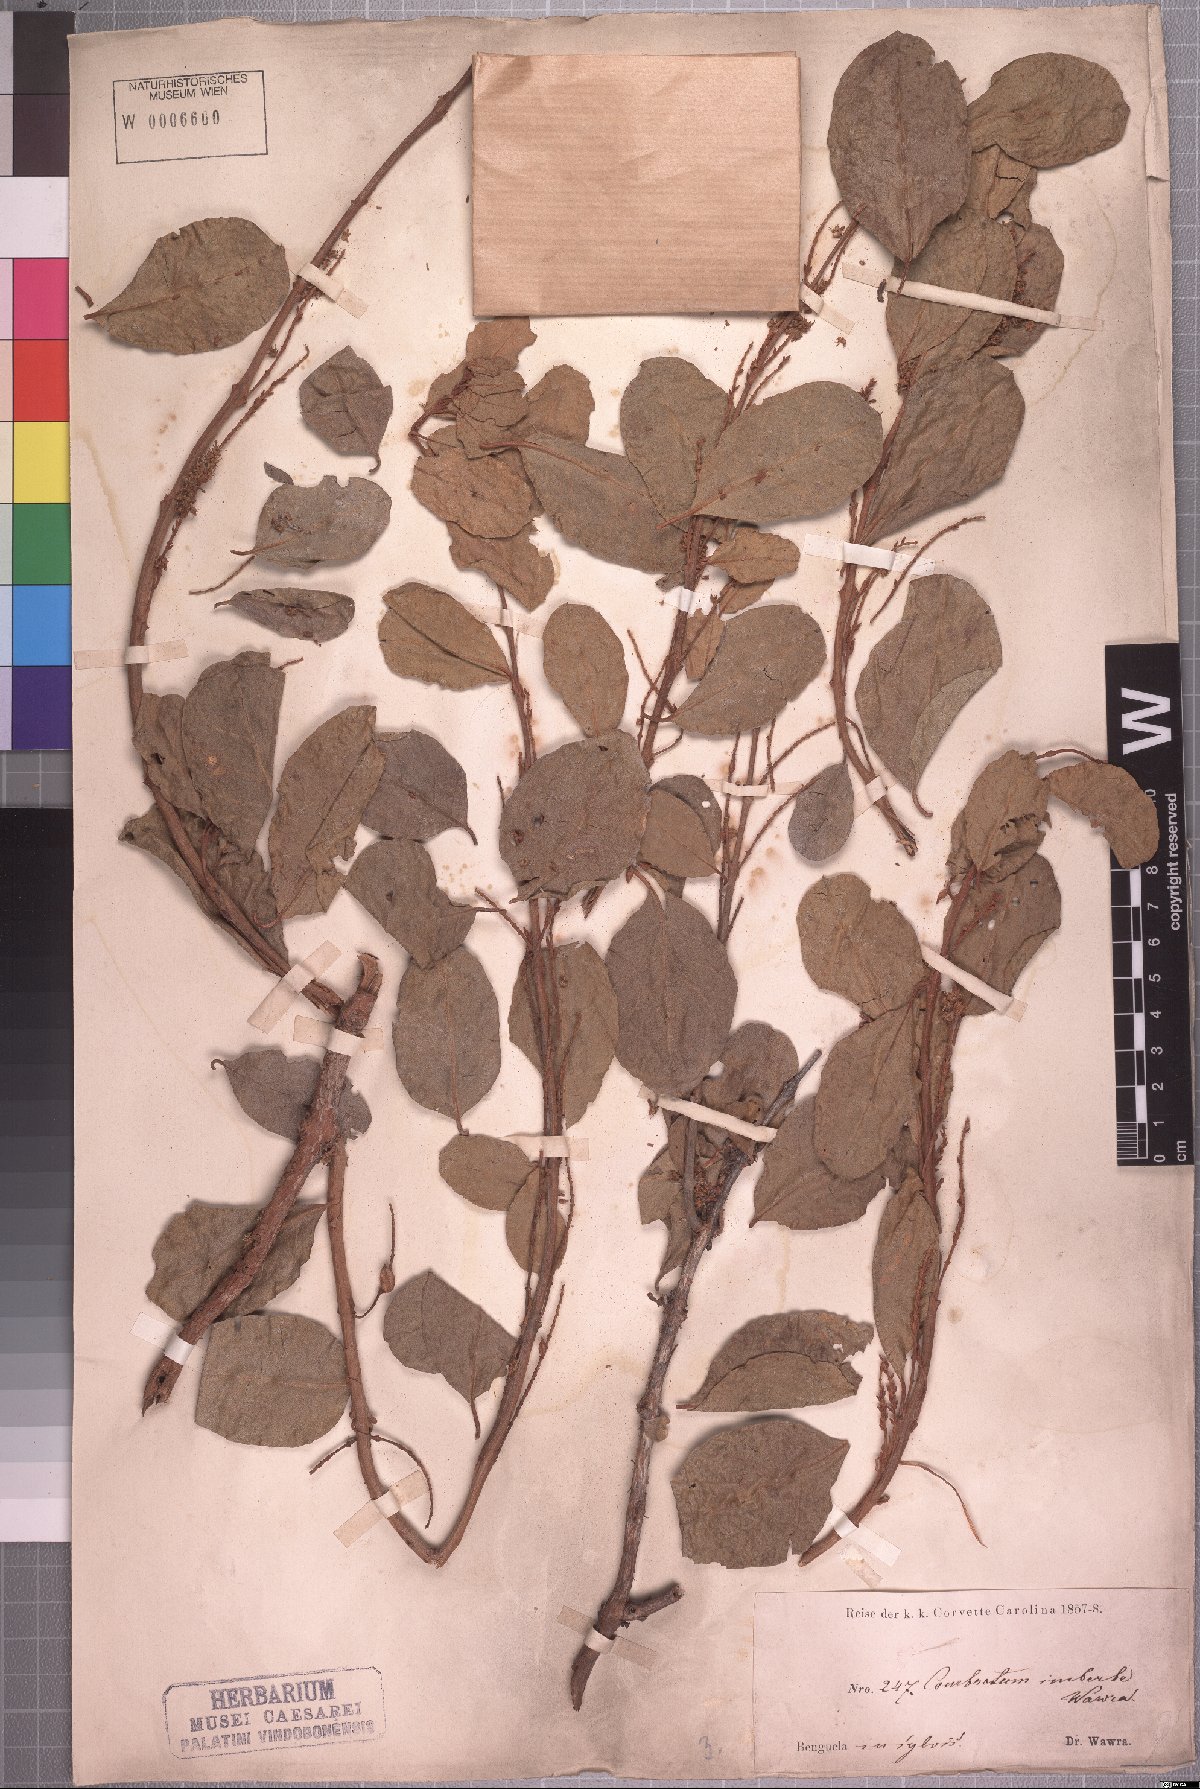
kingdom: Plantae
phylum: Tracheophyta
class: Magnoliopsida
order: Myrtales
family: Combretaceae
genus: Combretum
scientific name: Combretum imberbe
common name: Leadwood
